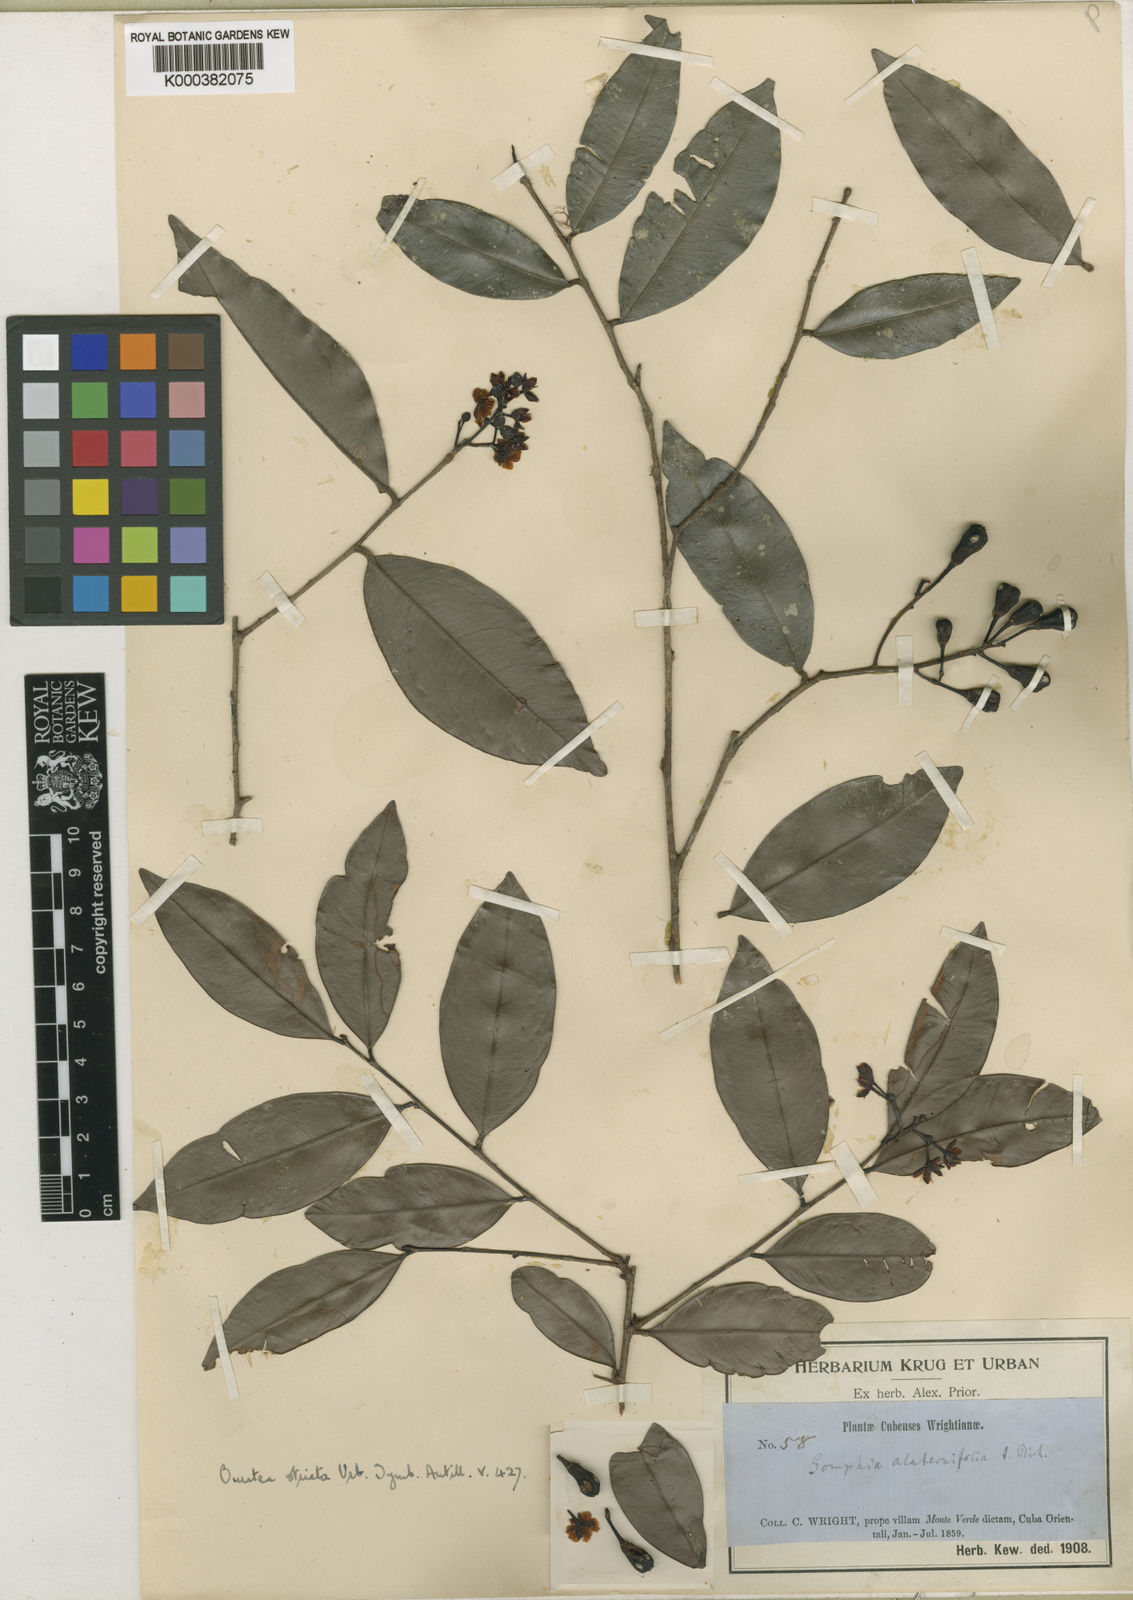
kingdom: Plantae
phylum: Tracheophyta
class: Magnoliopsida
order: Malpighiales
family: Ochnaceae
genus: Ouratea
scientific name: Ouratea striata
